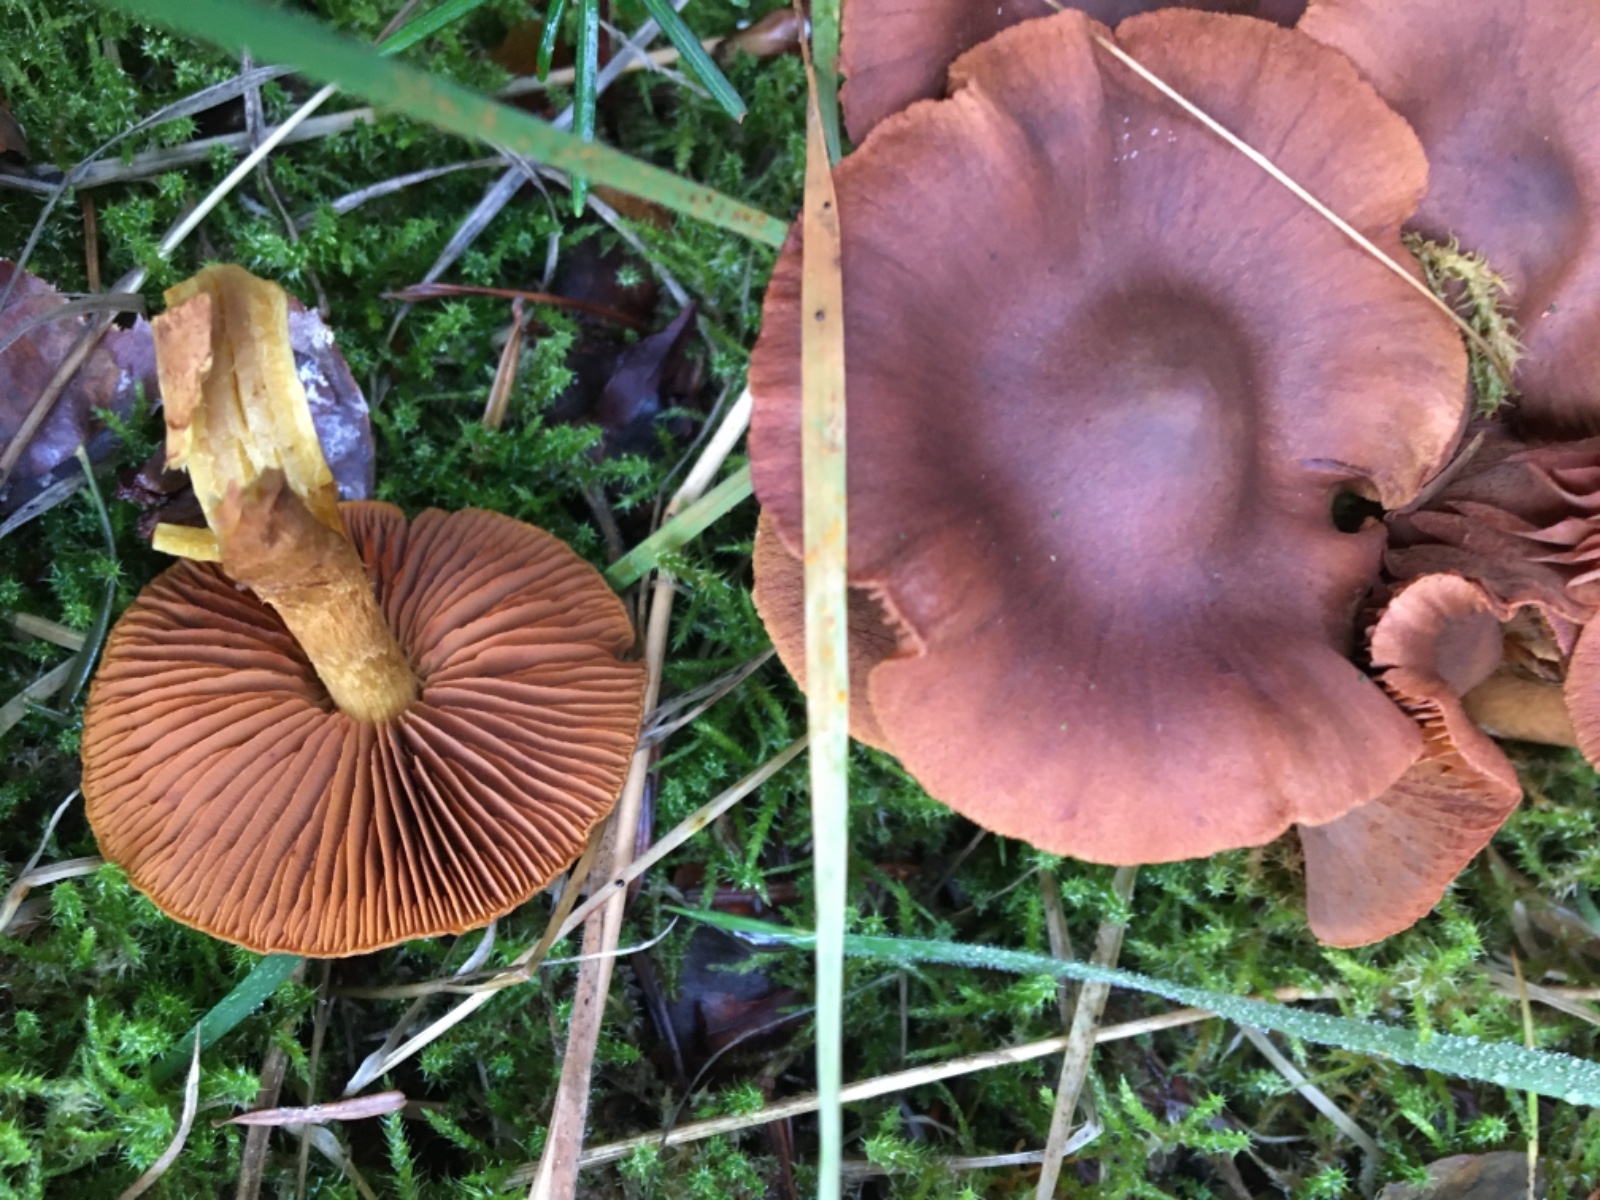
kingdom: Fungi
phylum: Basidiomycota
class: Agaricomycetes
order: Agaricales
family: Cortinariaceae
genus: Cortinarius
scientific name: Cortinarius cinnamomeus
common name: kanel-slørhat
